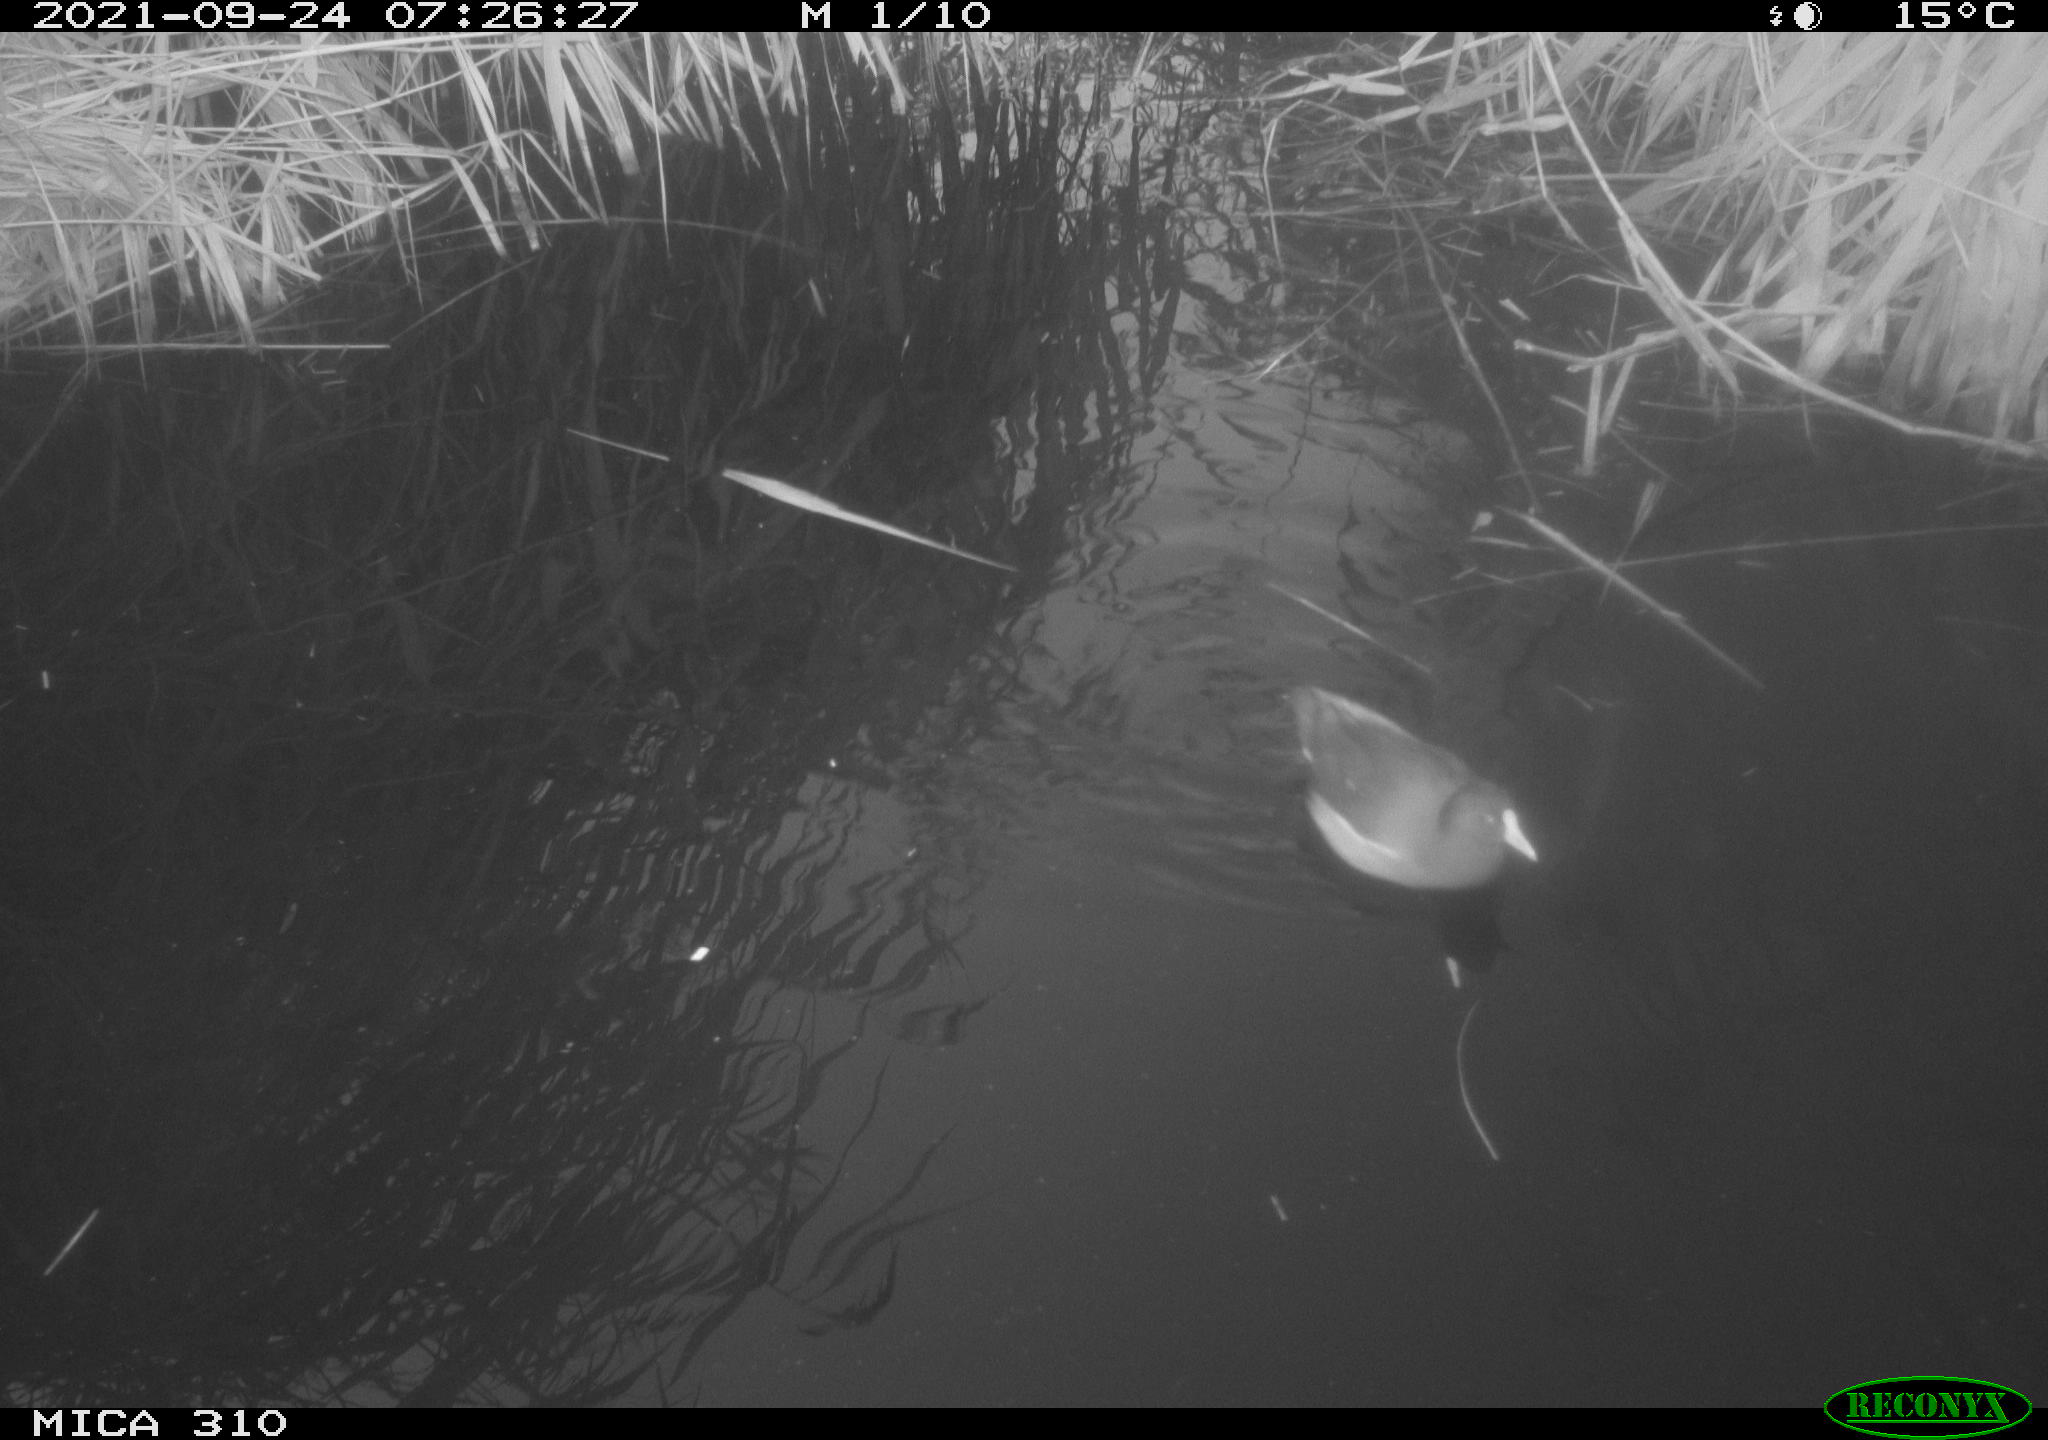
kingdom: Animalia
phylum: Chordata
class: Aves
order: Gruiformes
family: Rallidae
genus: Gallinula
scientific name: Gallinula chloropus
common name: Common moorhen
